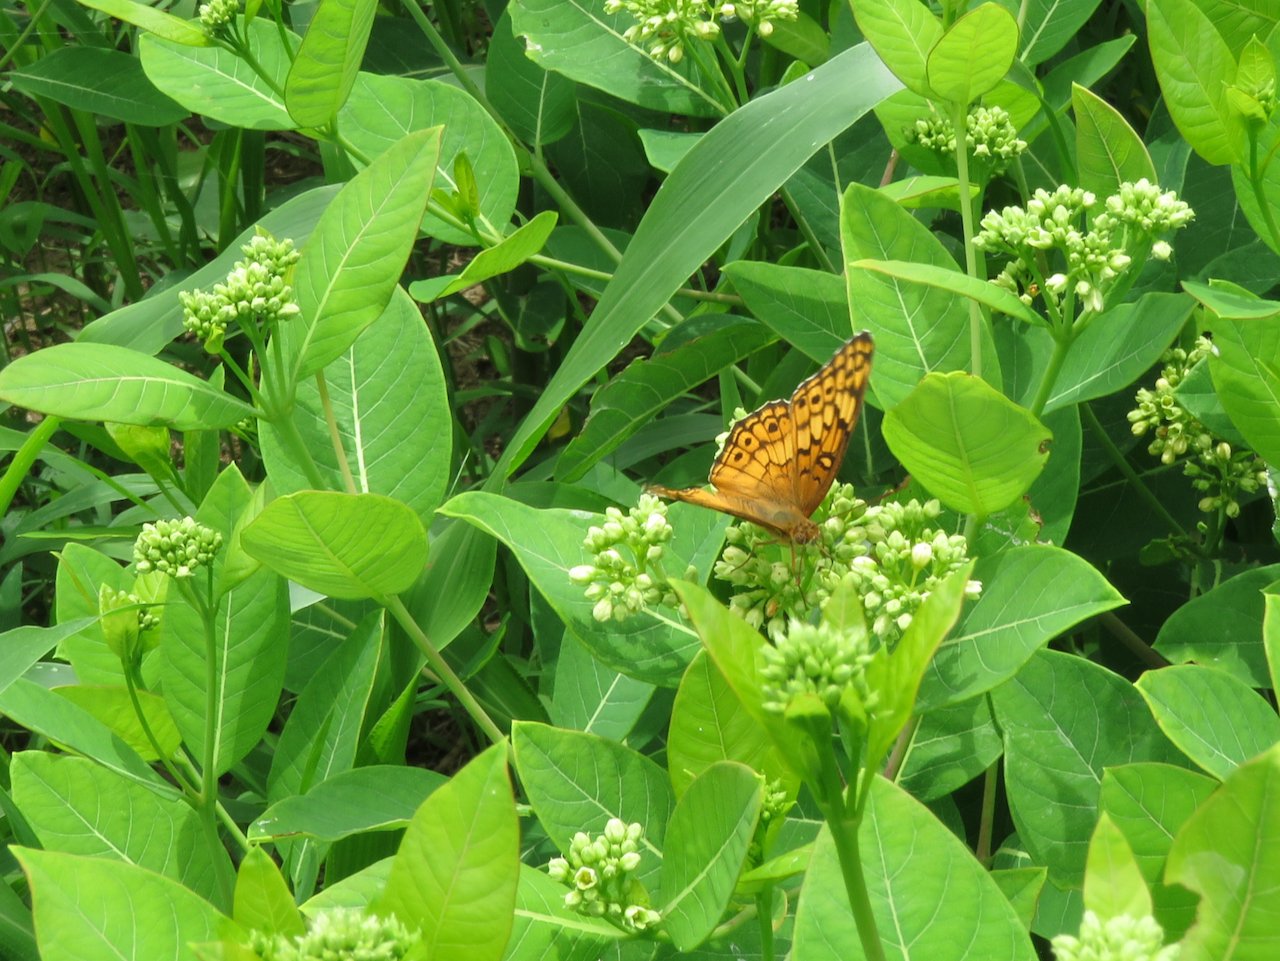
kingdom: Animalia
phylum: Arthropoda
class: Insecta
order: Lepidoptera
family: Nymphalidae
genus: Euptoieta
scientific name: Euptoieta claudia
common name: Variegated Fritillary
